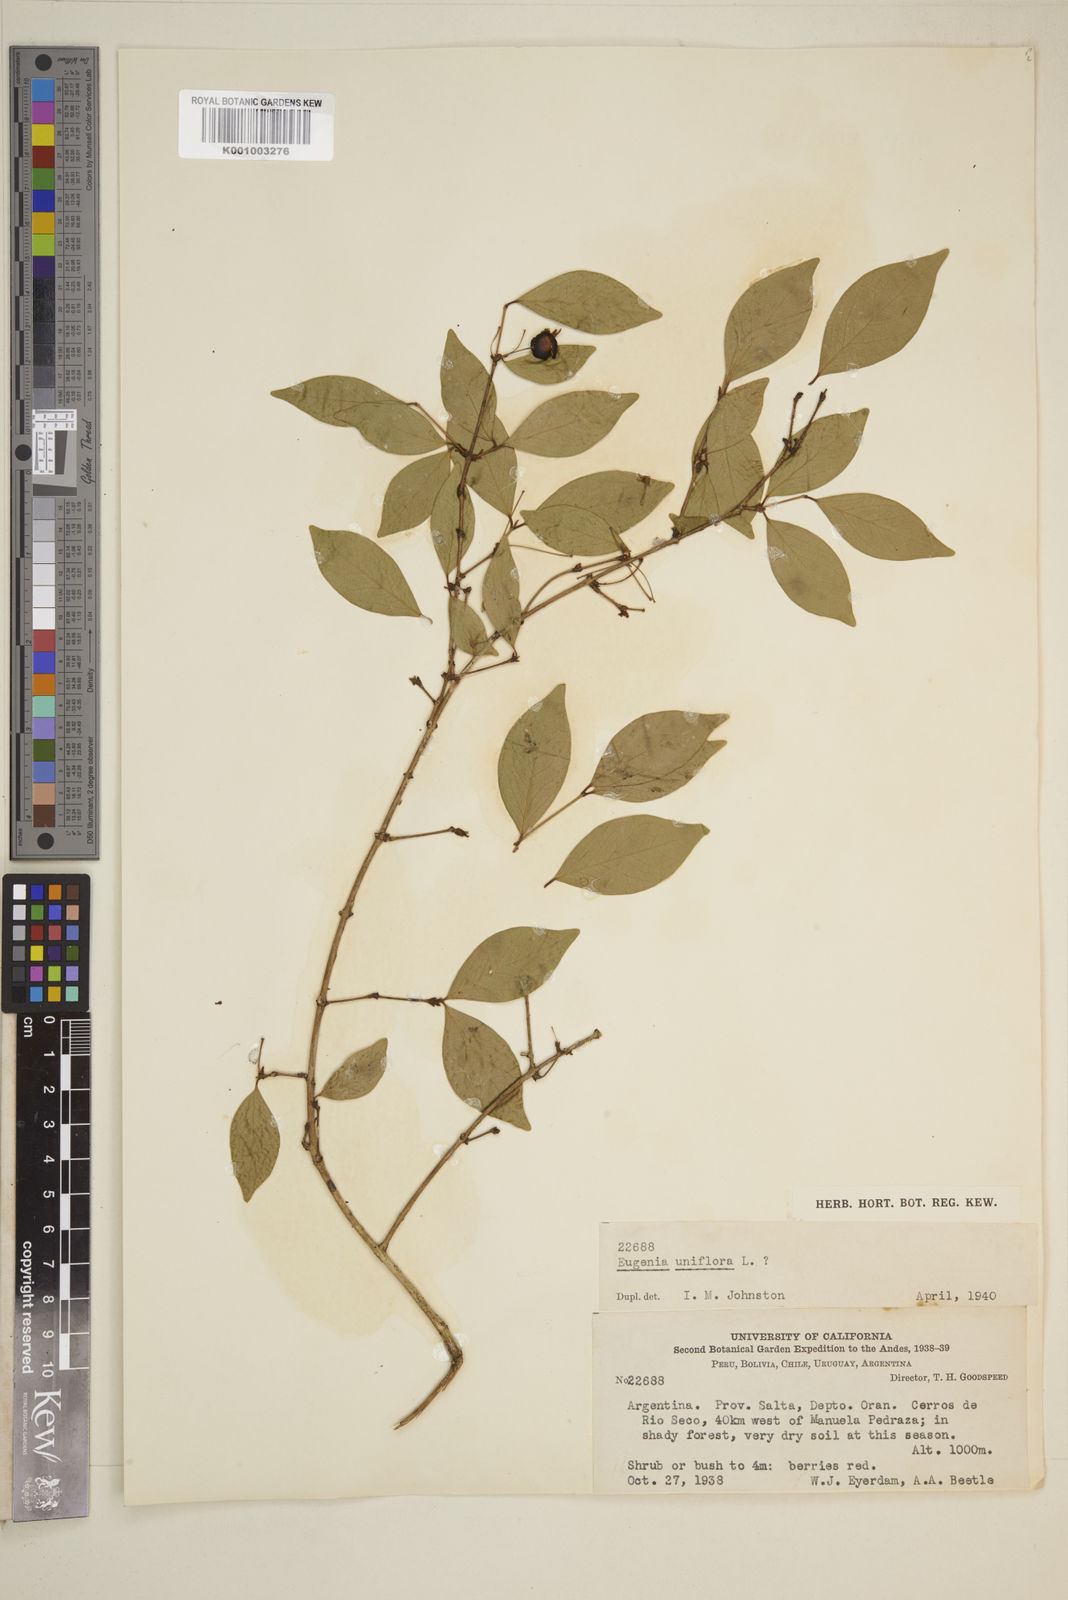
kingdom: Plantae
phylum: Tracheophyta
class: Magnoliopsida
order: Myrtales
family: Myrtaceae
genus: Eugenia
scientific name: Eugenia uniflora
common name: Surinam cherry
